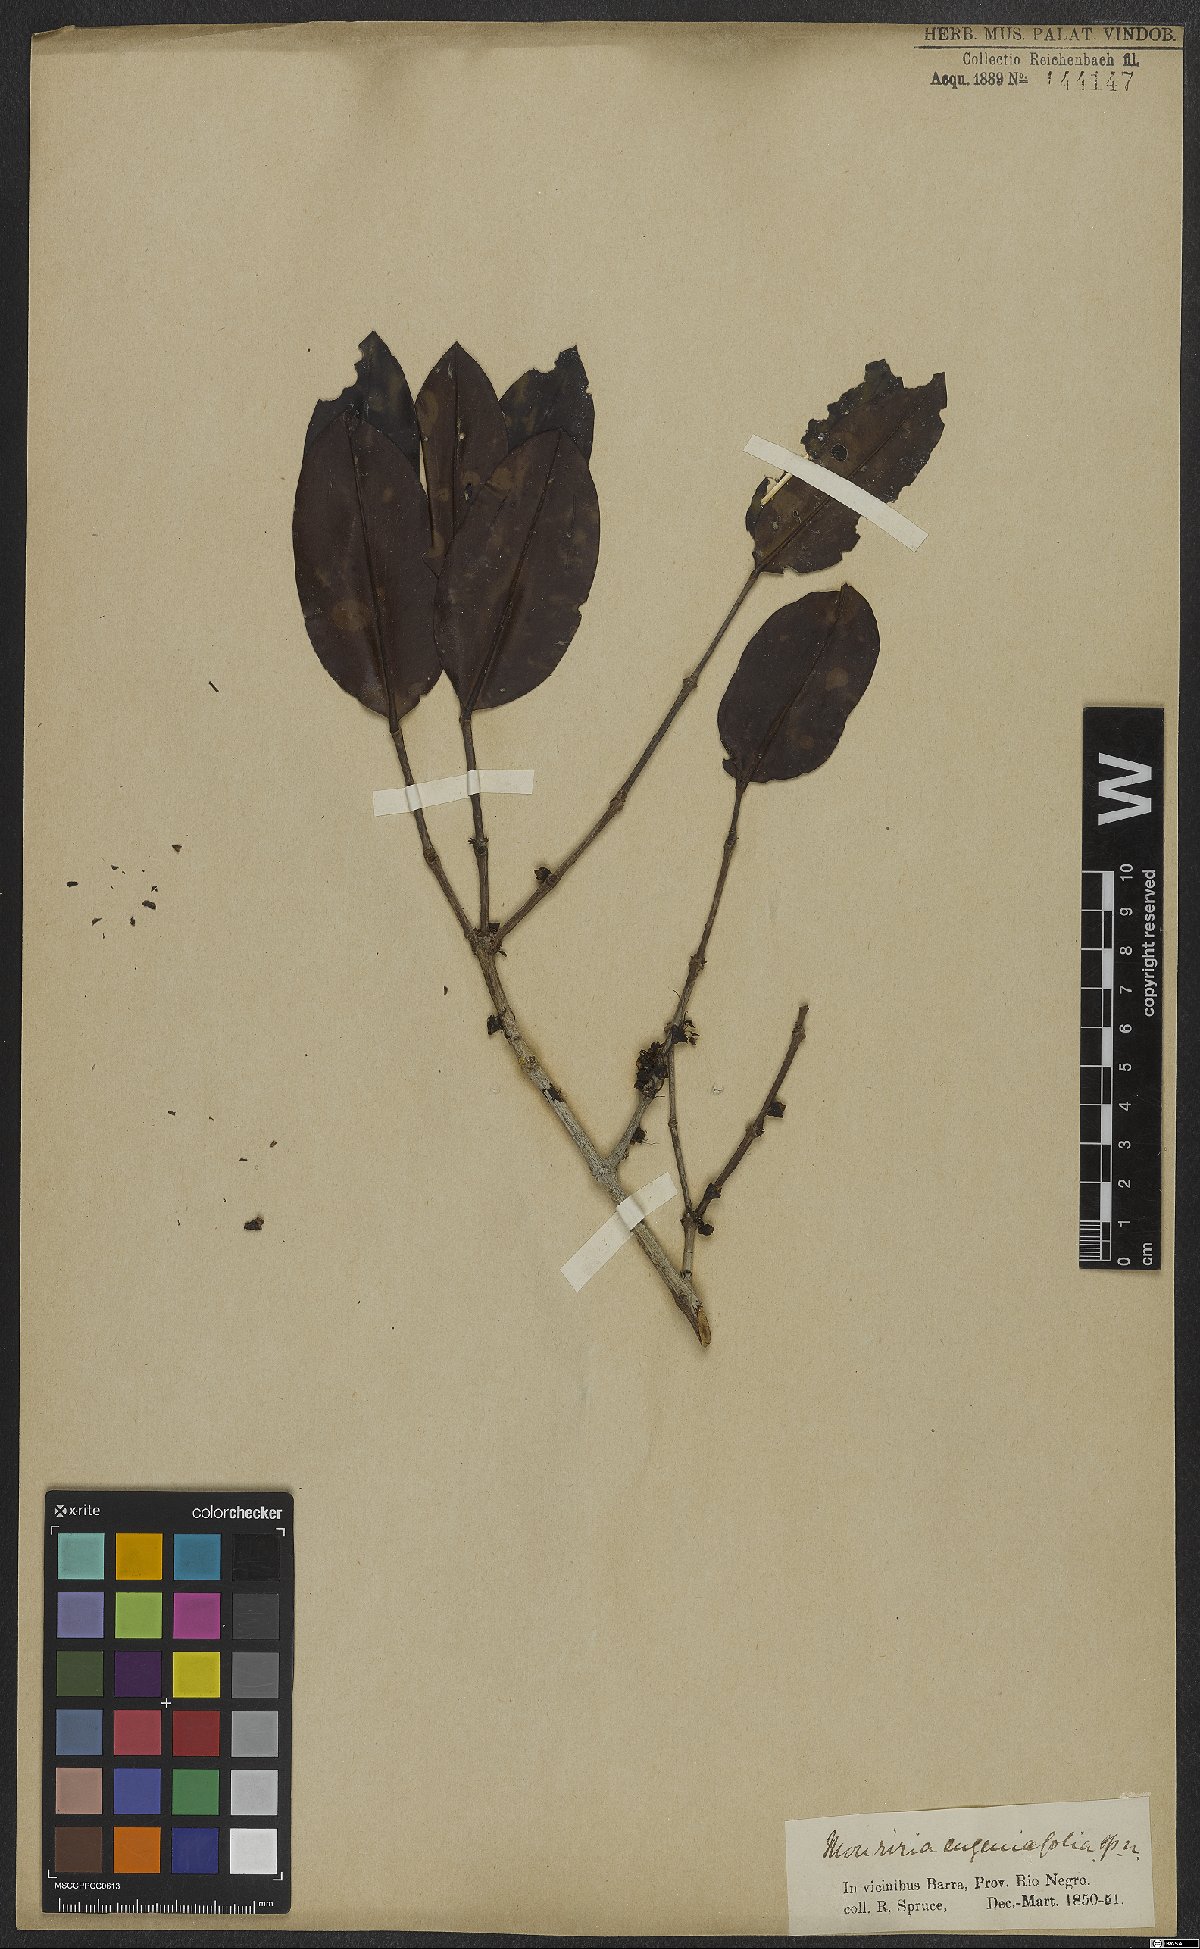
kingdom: Plantae
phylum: Tracheophyta
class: Magnoliopsida
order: Myrtales
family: Melastomataceae
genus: Mouriri
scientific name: Mouriri eugeniifolia
